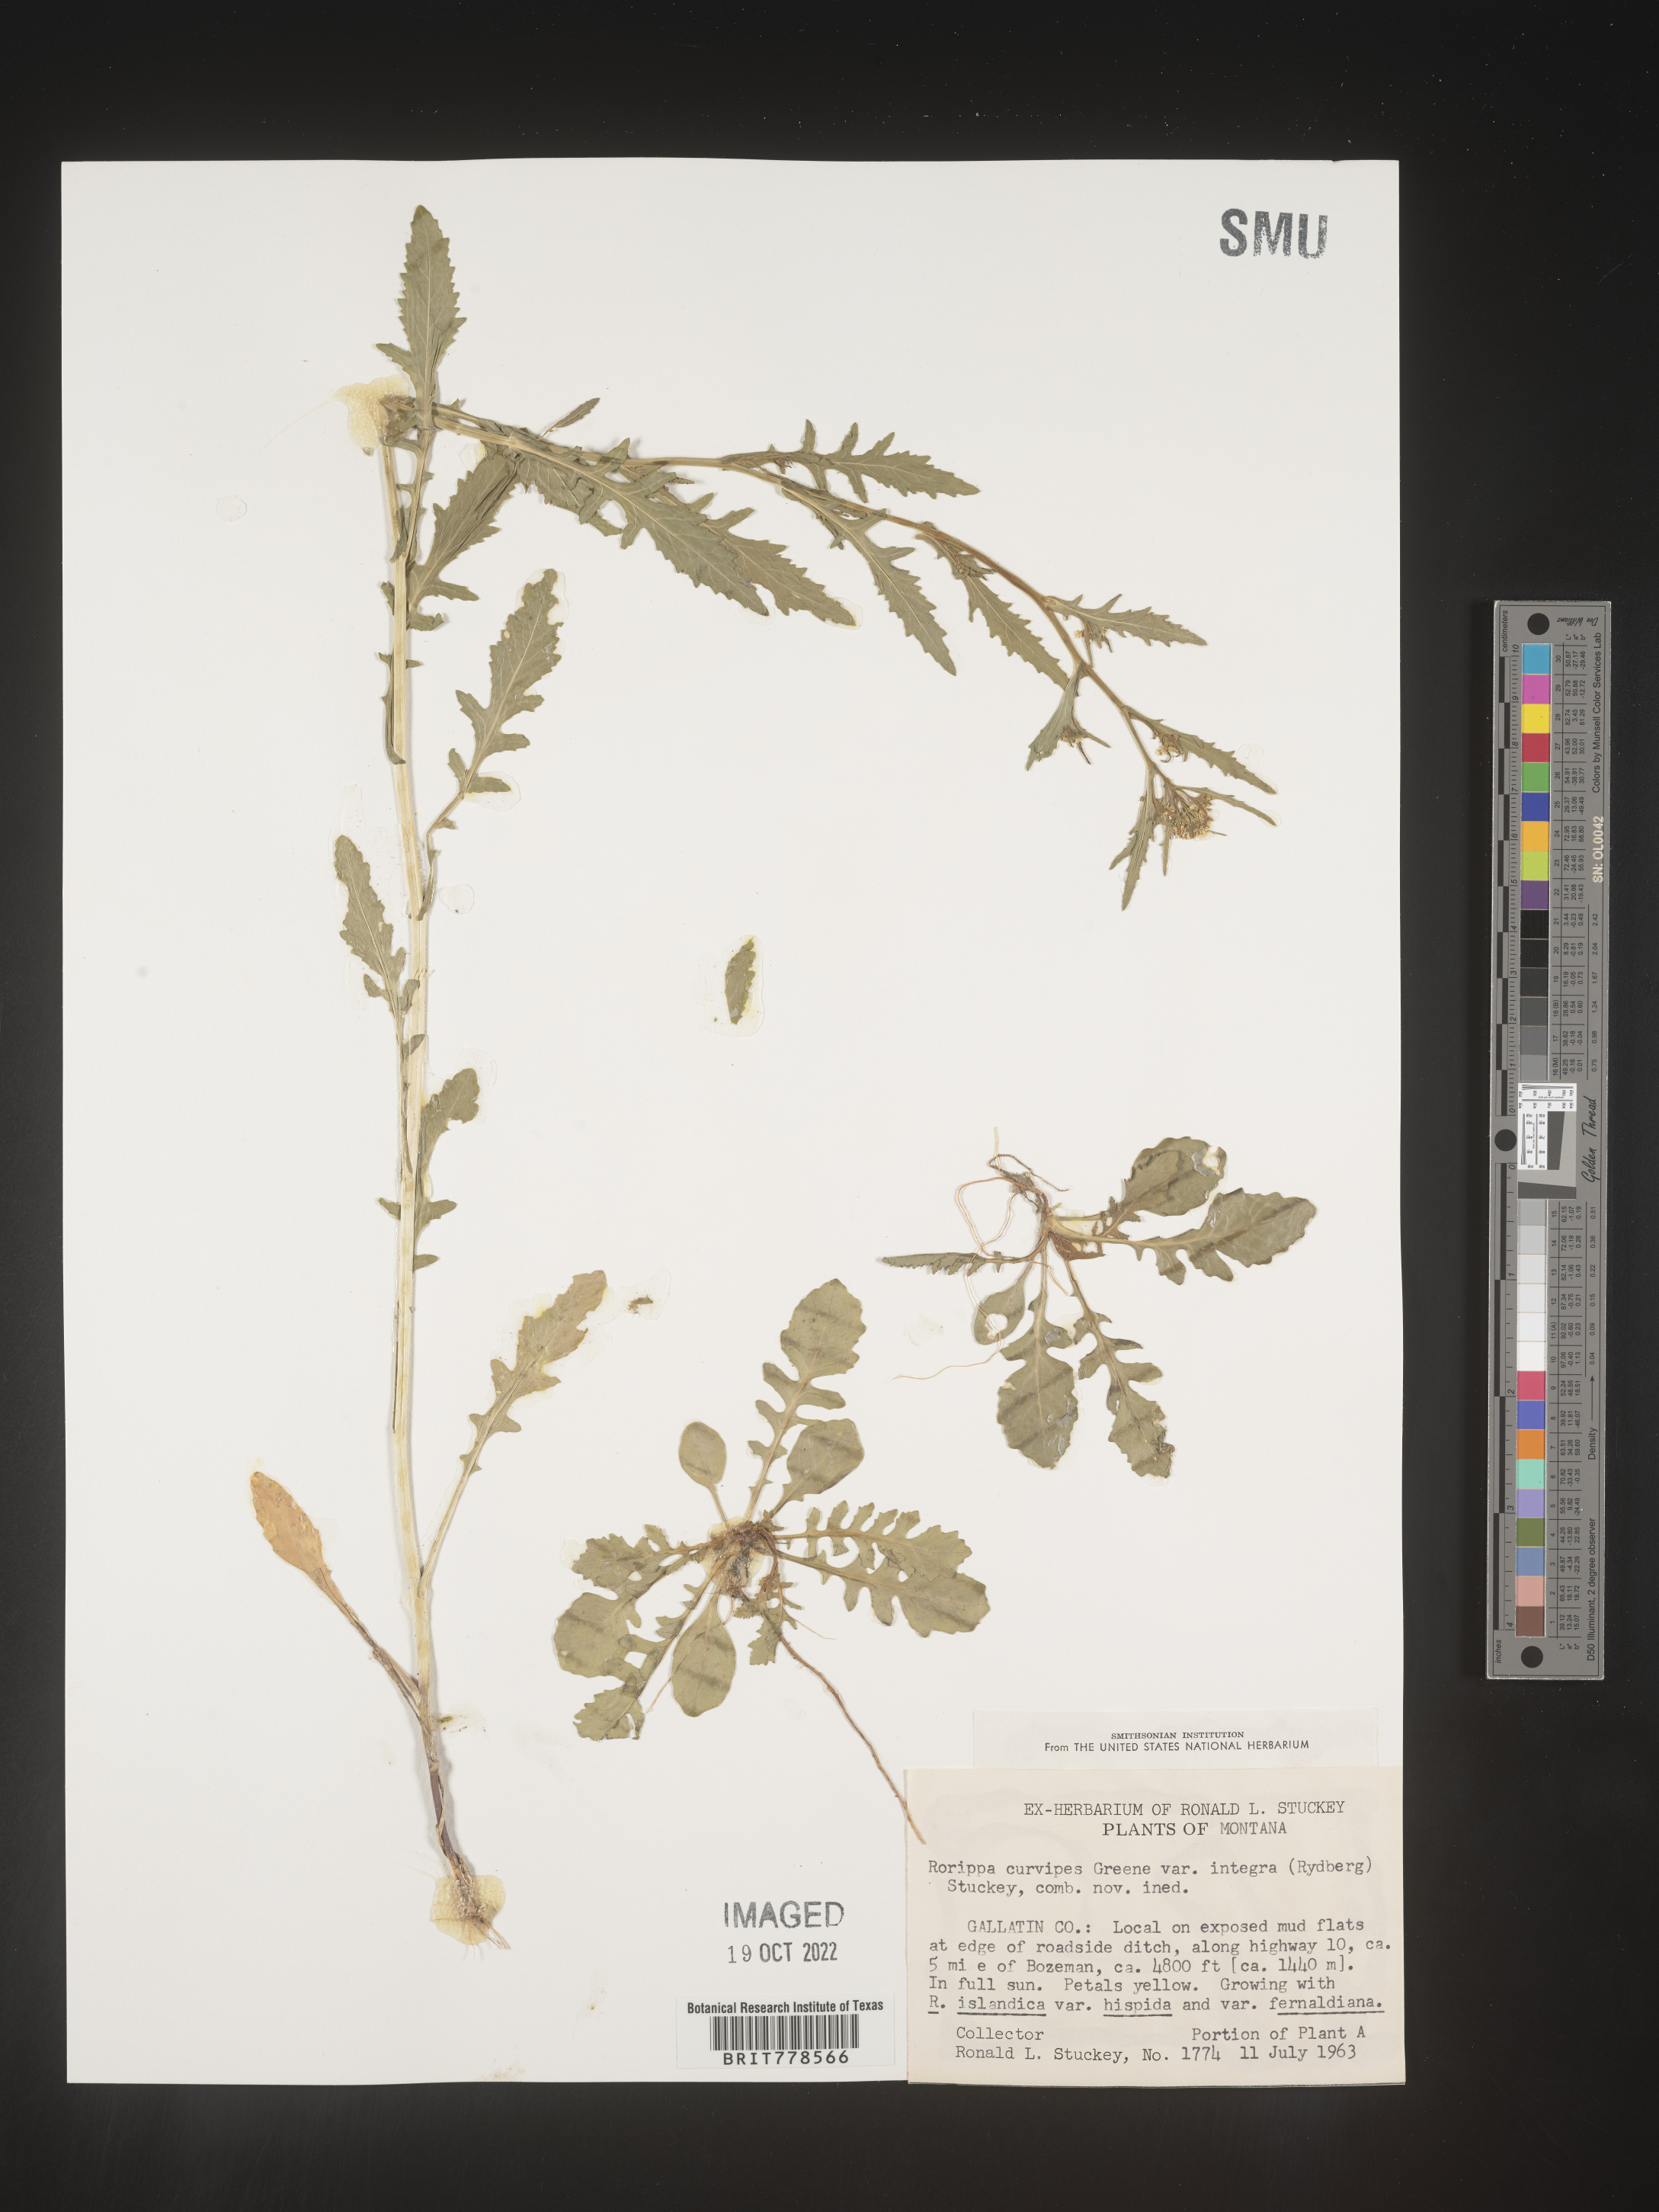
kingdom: Plantae
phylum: Tracheophyta
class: Magnoliopsida
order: Brassicales
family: Brassicaceae
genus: Rorippa
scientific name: Rorippa
